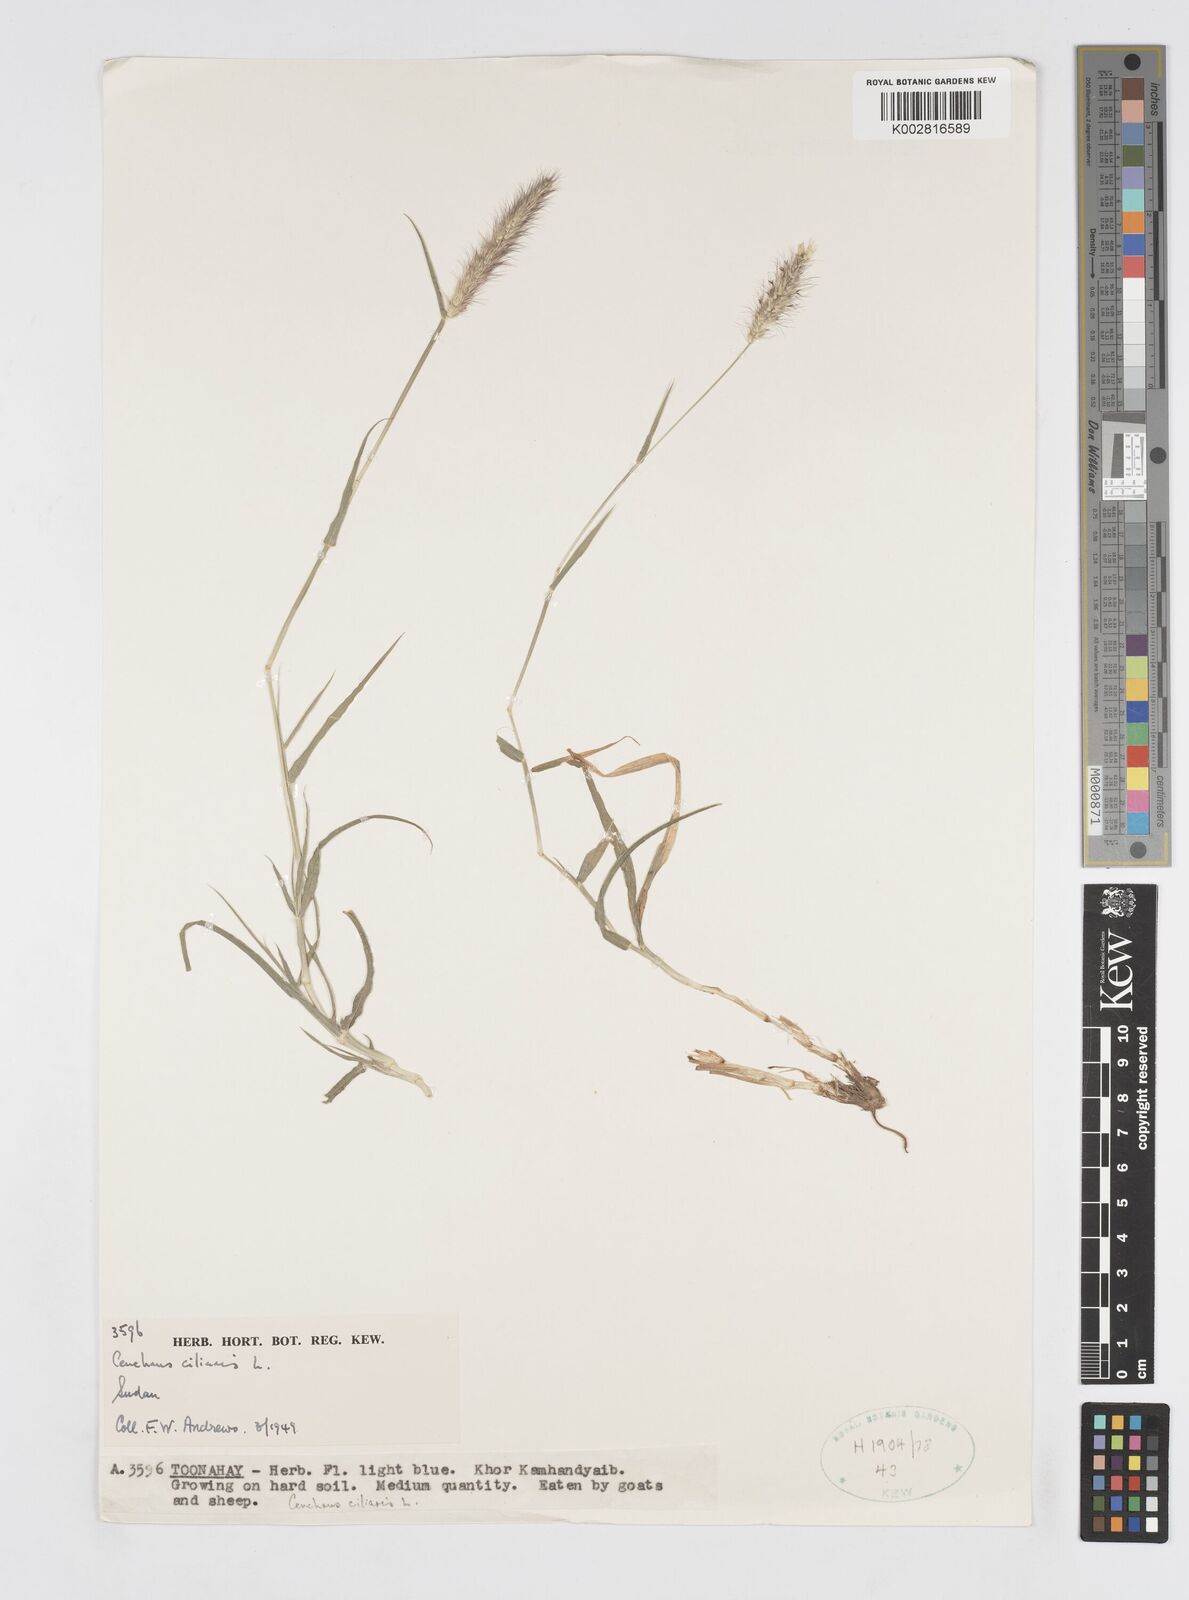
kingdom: Plantae
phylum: Tracheophyta
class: Liliopsida
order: Poales
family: Poaceae
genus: Cenchrus
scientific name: Cenchrus ciliaris
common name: Buffelgrass
